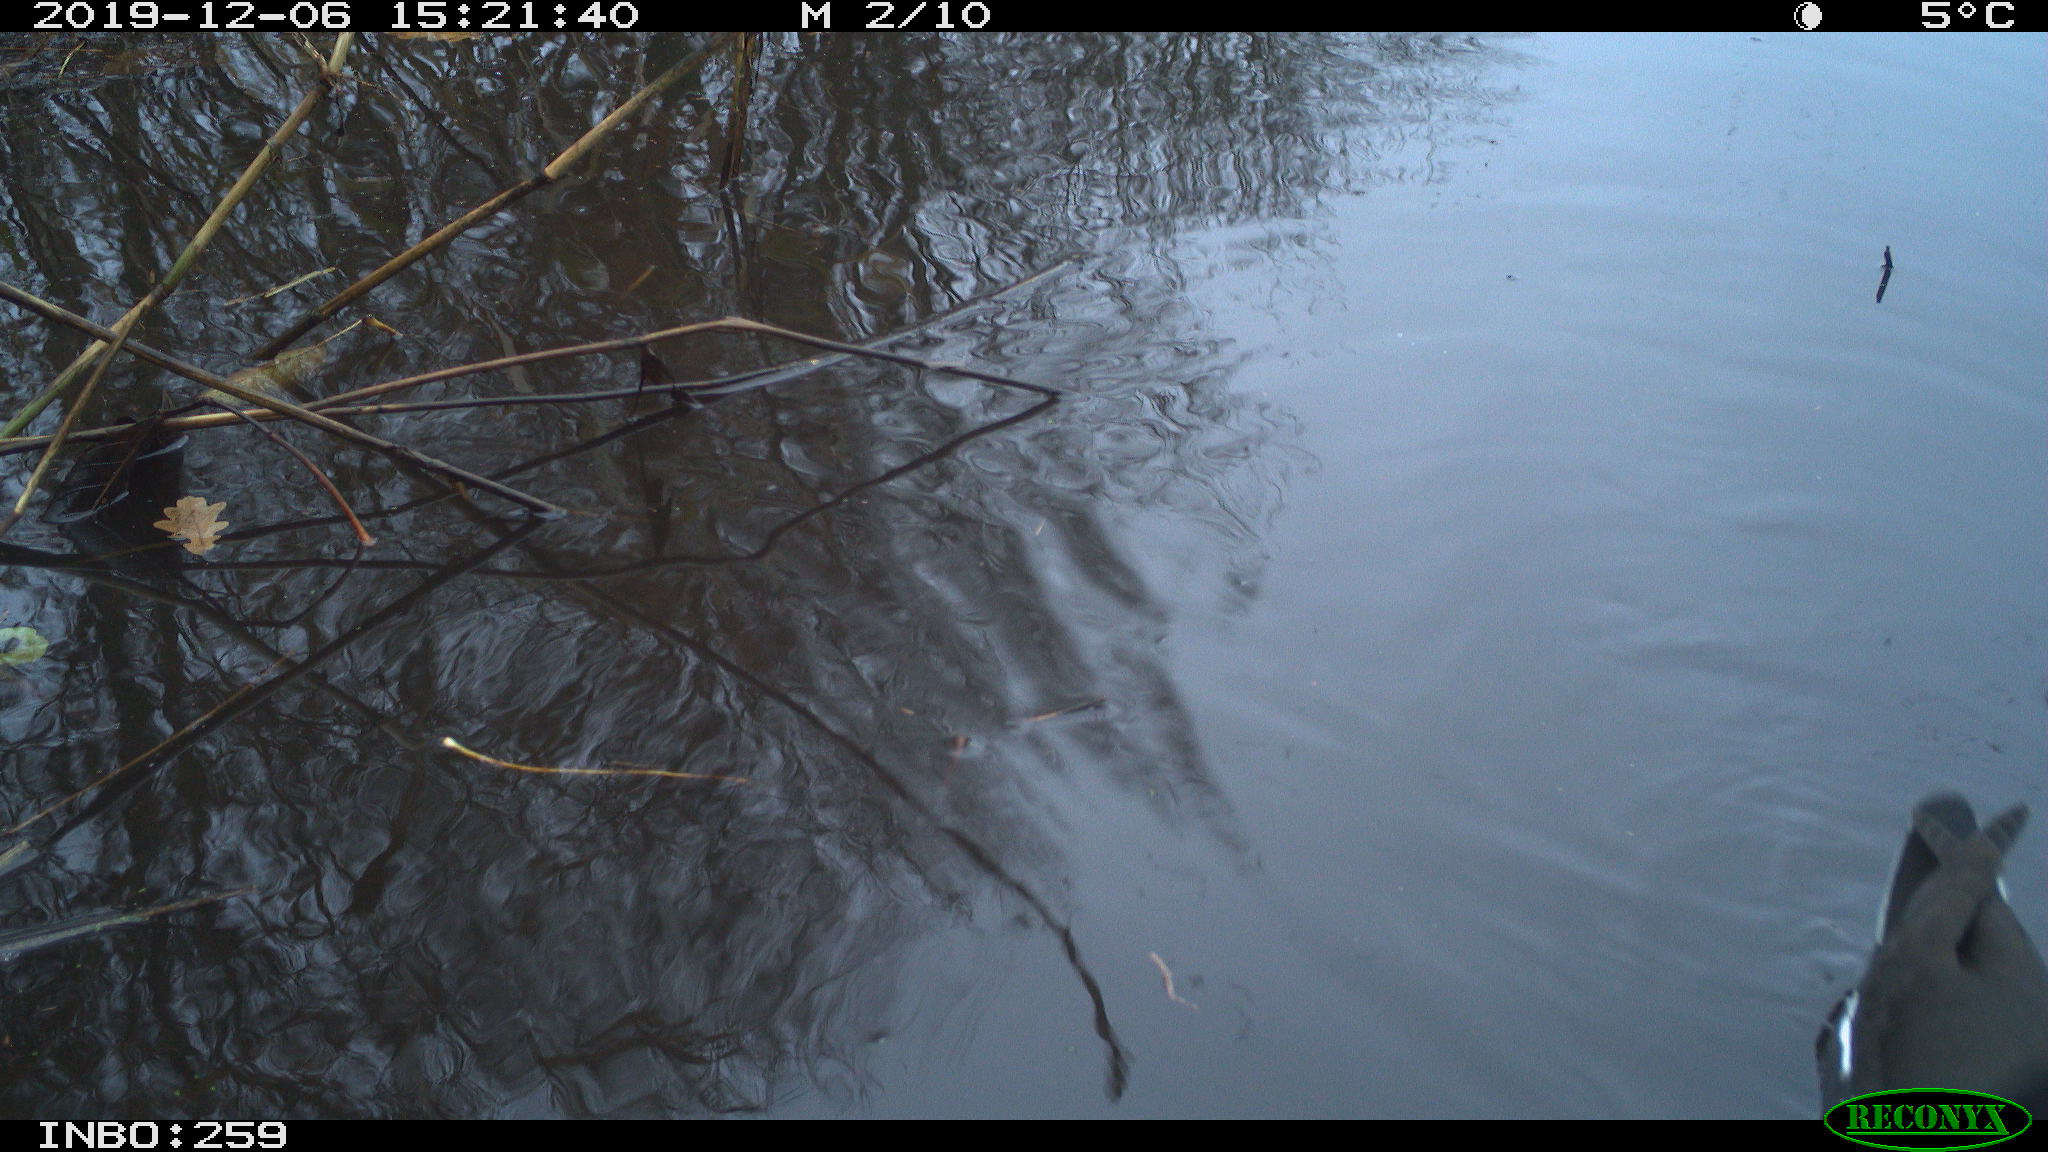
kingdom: Animalia
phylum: Chordata
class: Aves
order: Gruiformes
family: Rallidae
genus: Gallinula
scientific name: Gallinula chloropus
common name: Common moorhen
